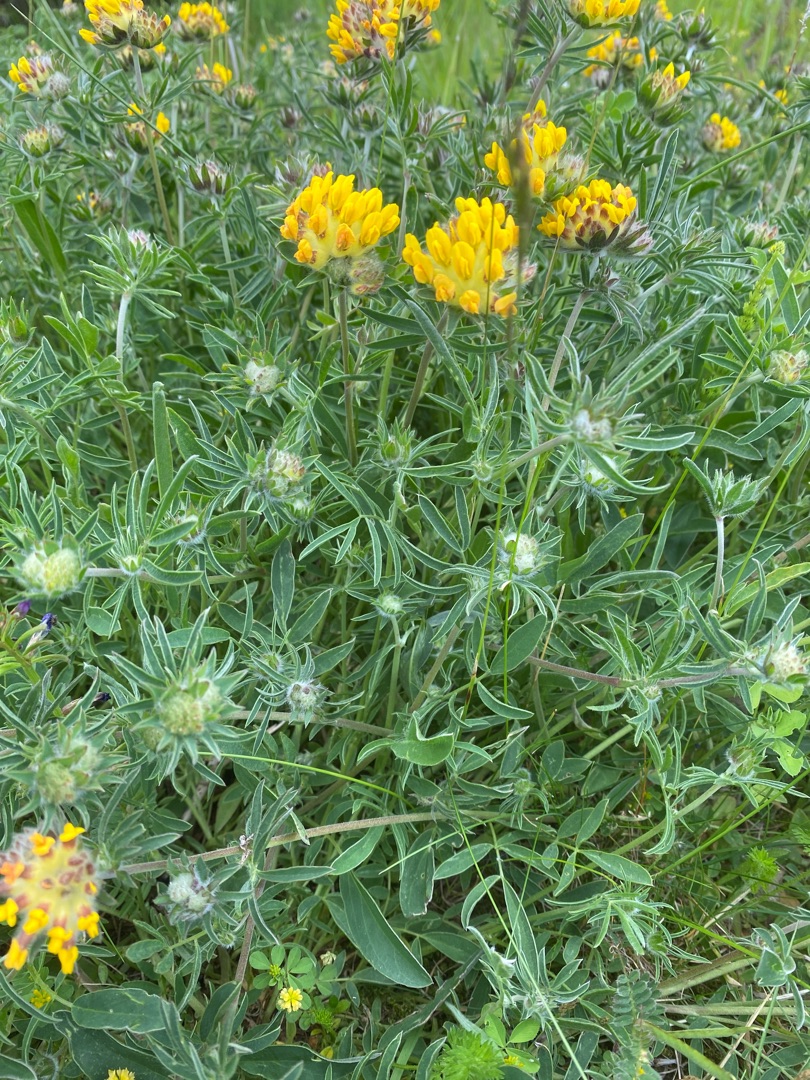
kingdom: Plantae
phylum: Tracheophyta
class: Magnoliopsida
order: Fabales
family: Fabaceae
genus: Anthyllis
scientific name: Anthyllis vulneraria
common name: Rundbælg
